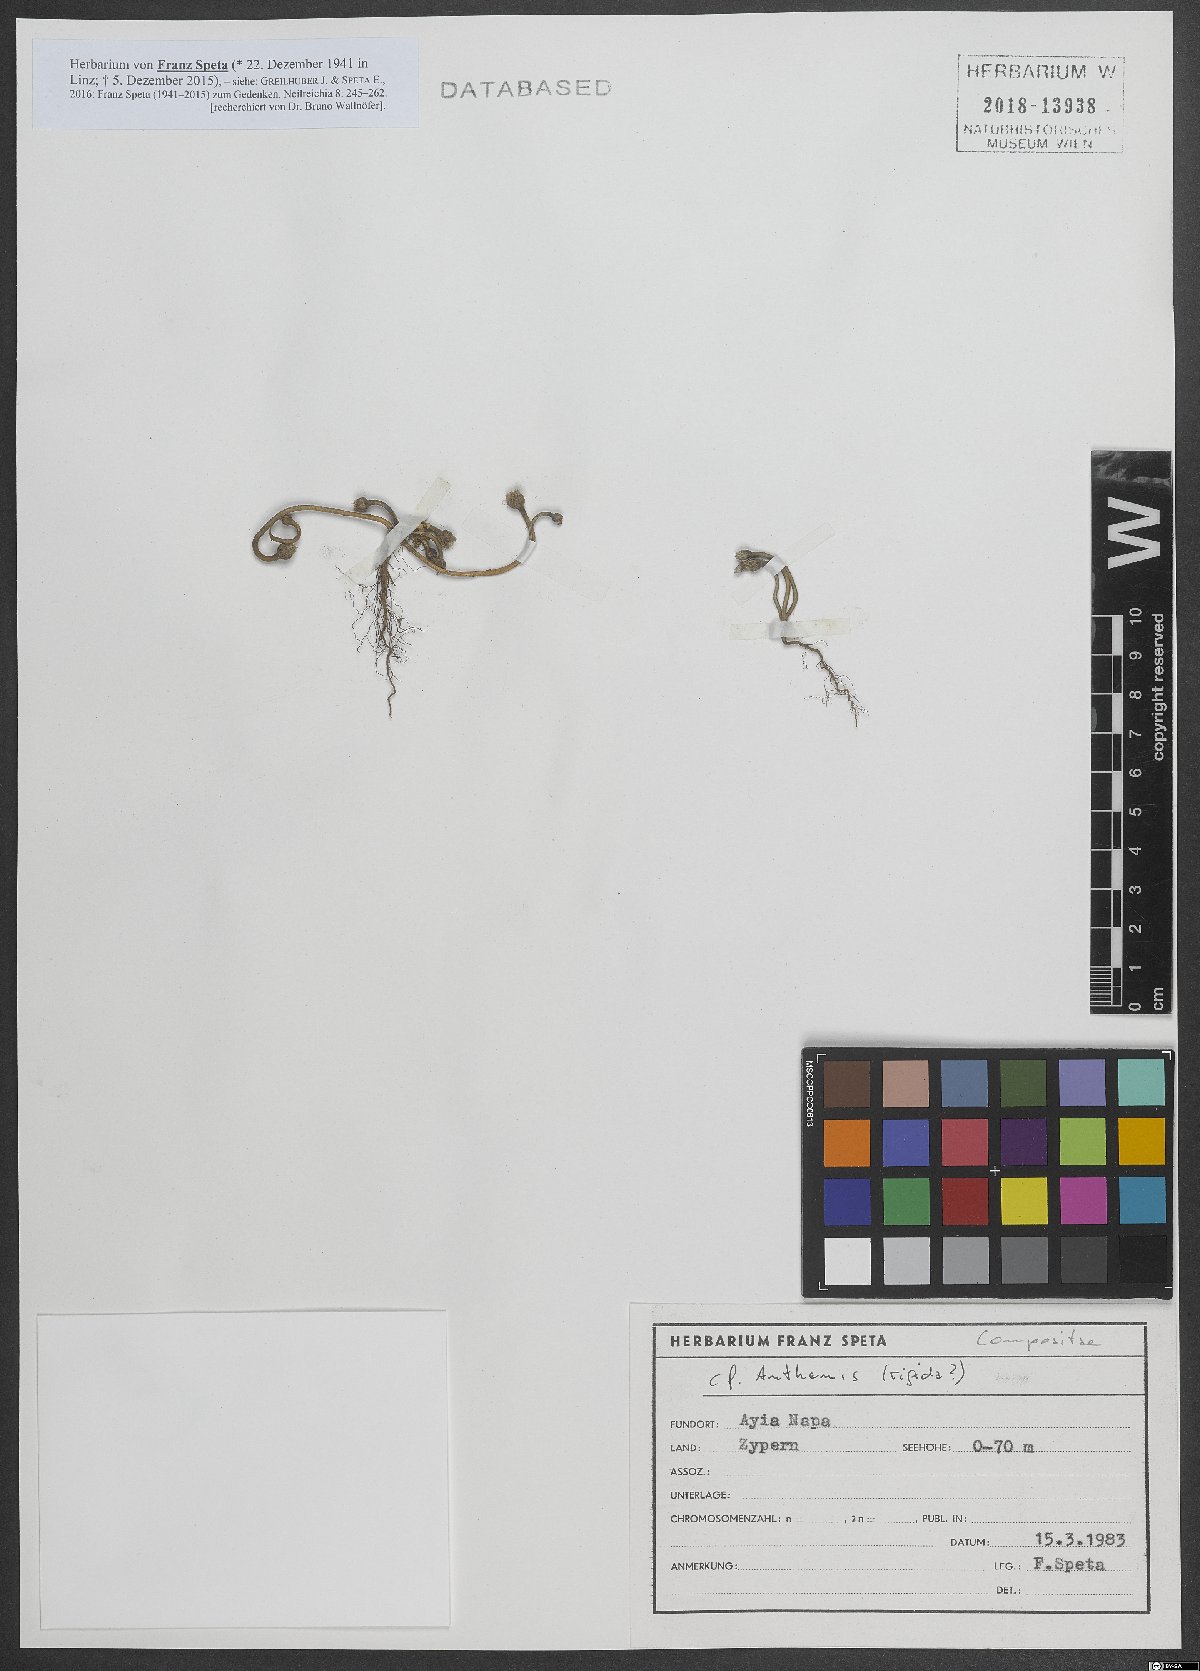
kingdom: Plantae
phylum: Tracheophyta
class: Magnoliopsida
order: Asterales
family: Asteraceae
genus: Anthemis
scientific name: Anthemis rigida
